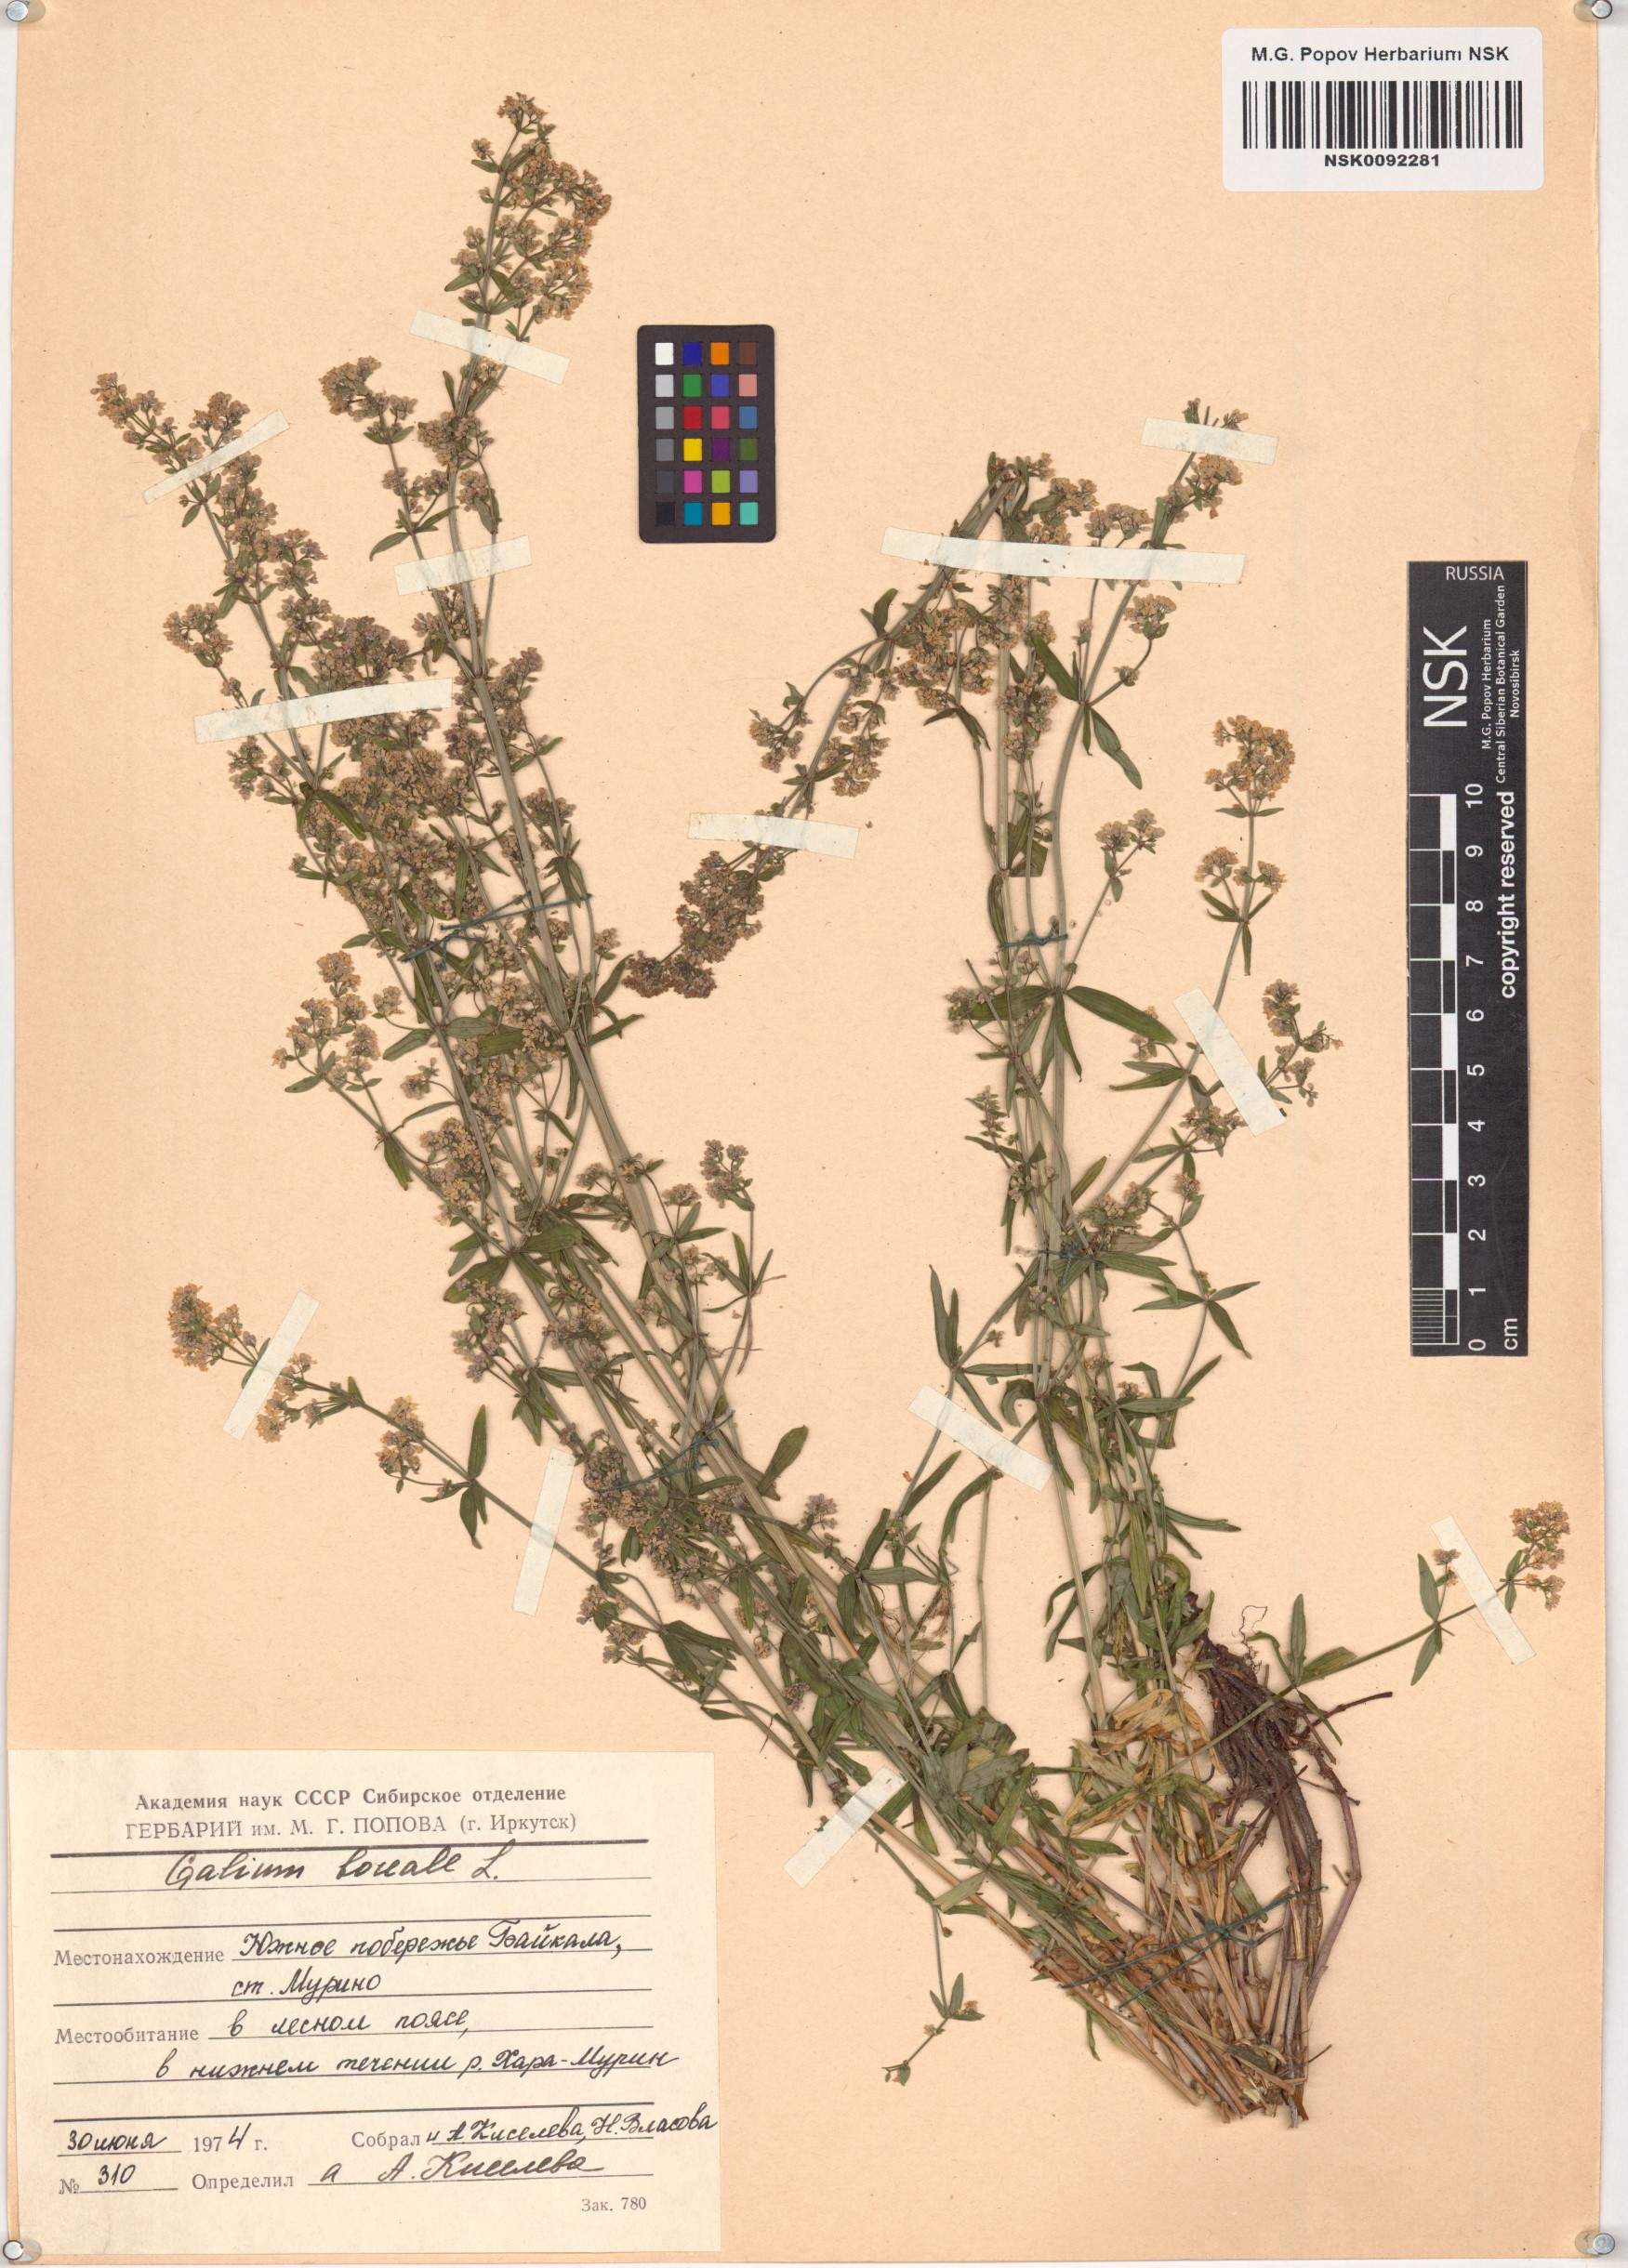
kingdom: Plantae
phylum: Tracheophyta
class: Magnoliopsida
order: Gentianales
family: Rubiaceae
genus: Galium
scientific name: Galium boreale
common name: Northern bedstraw
